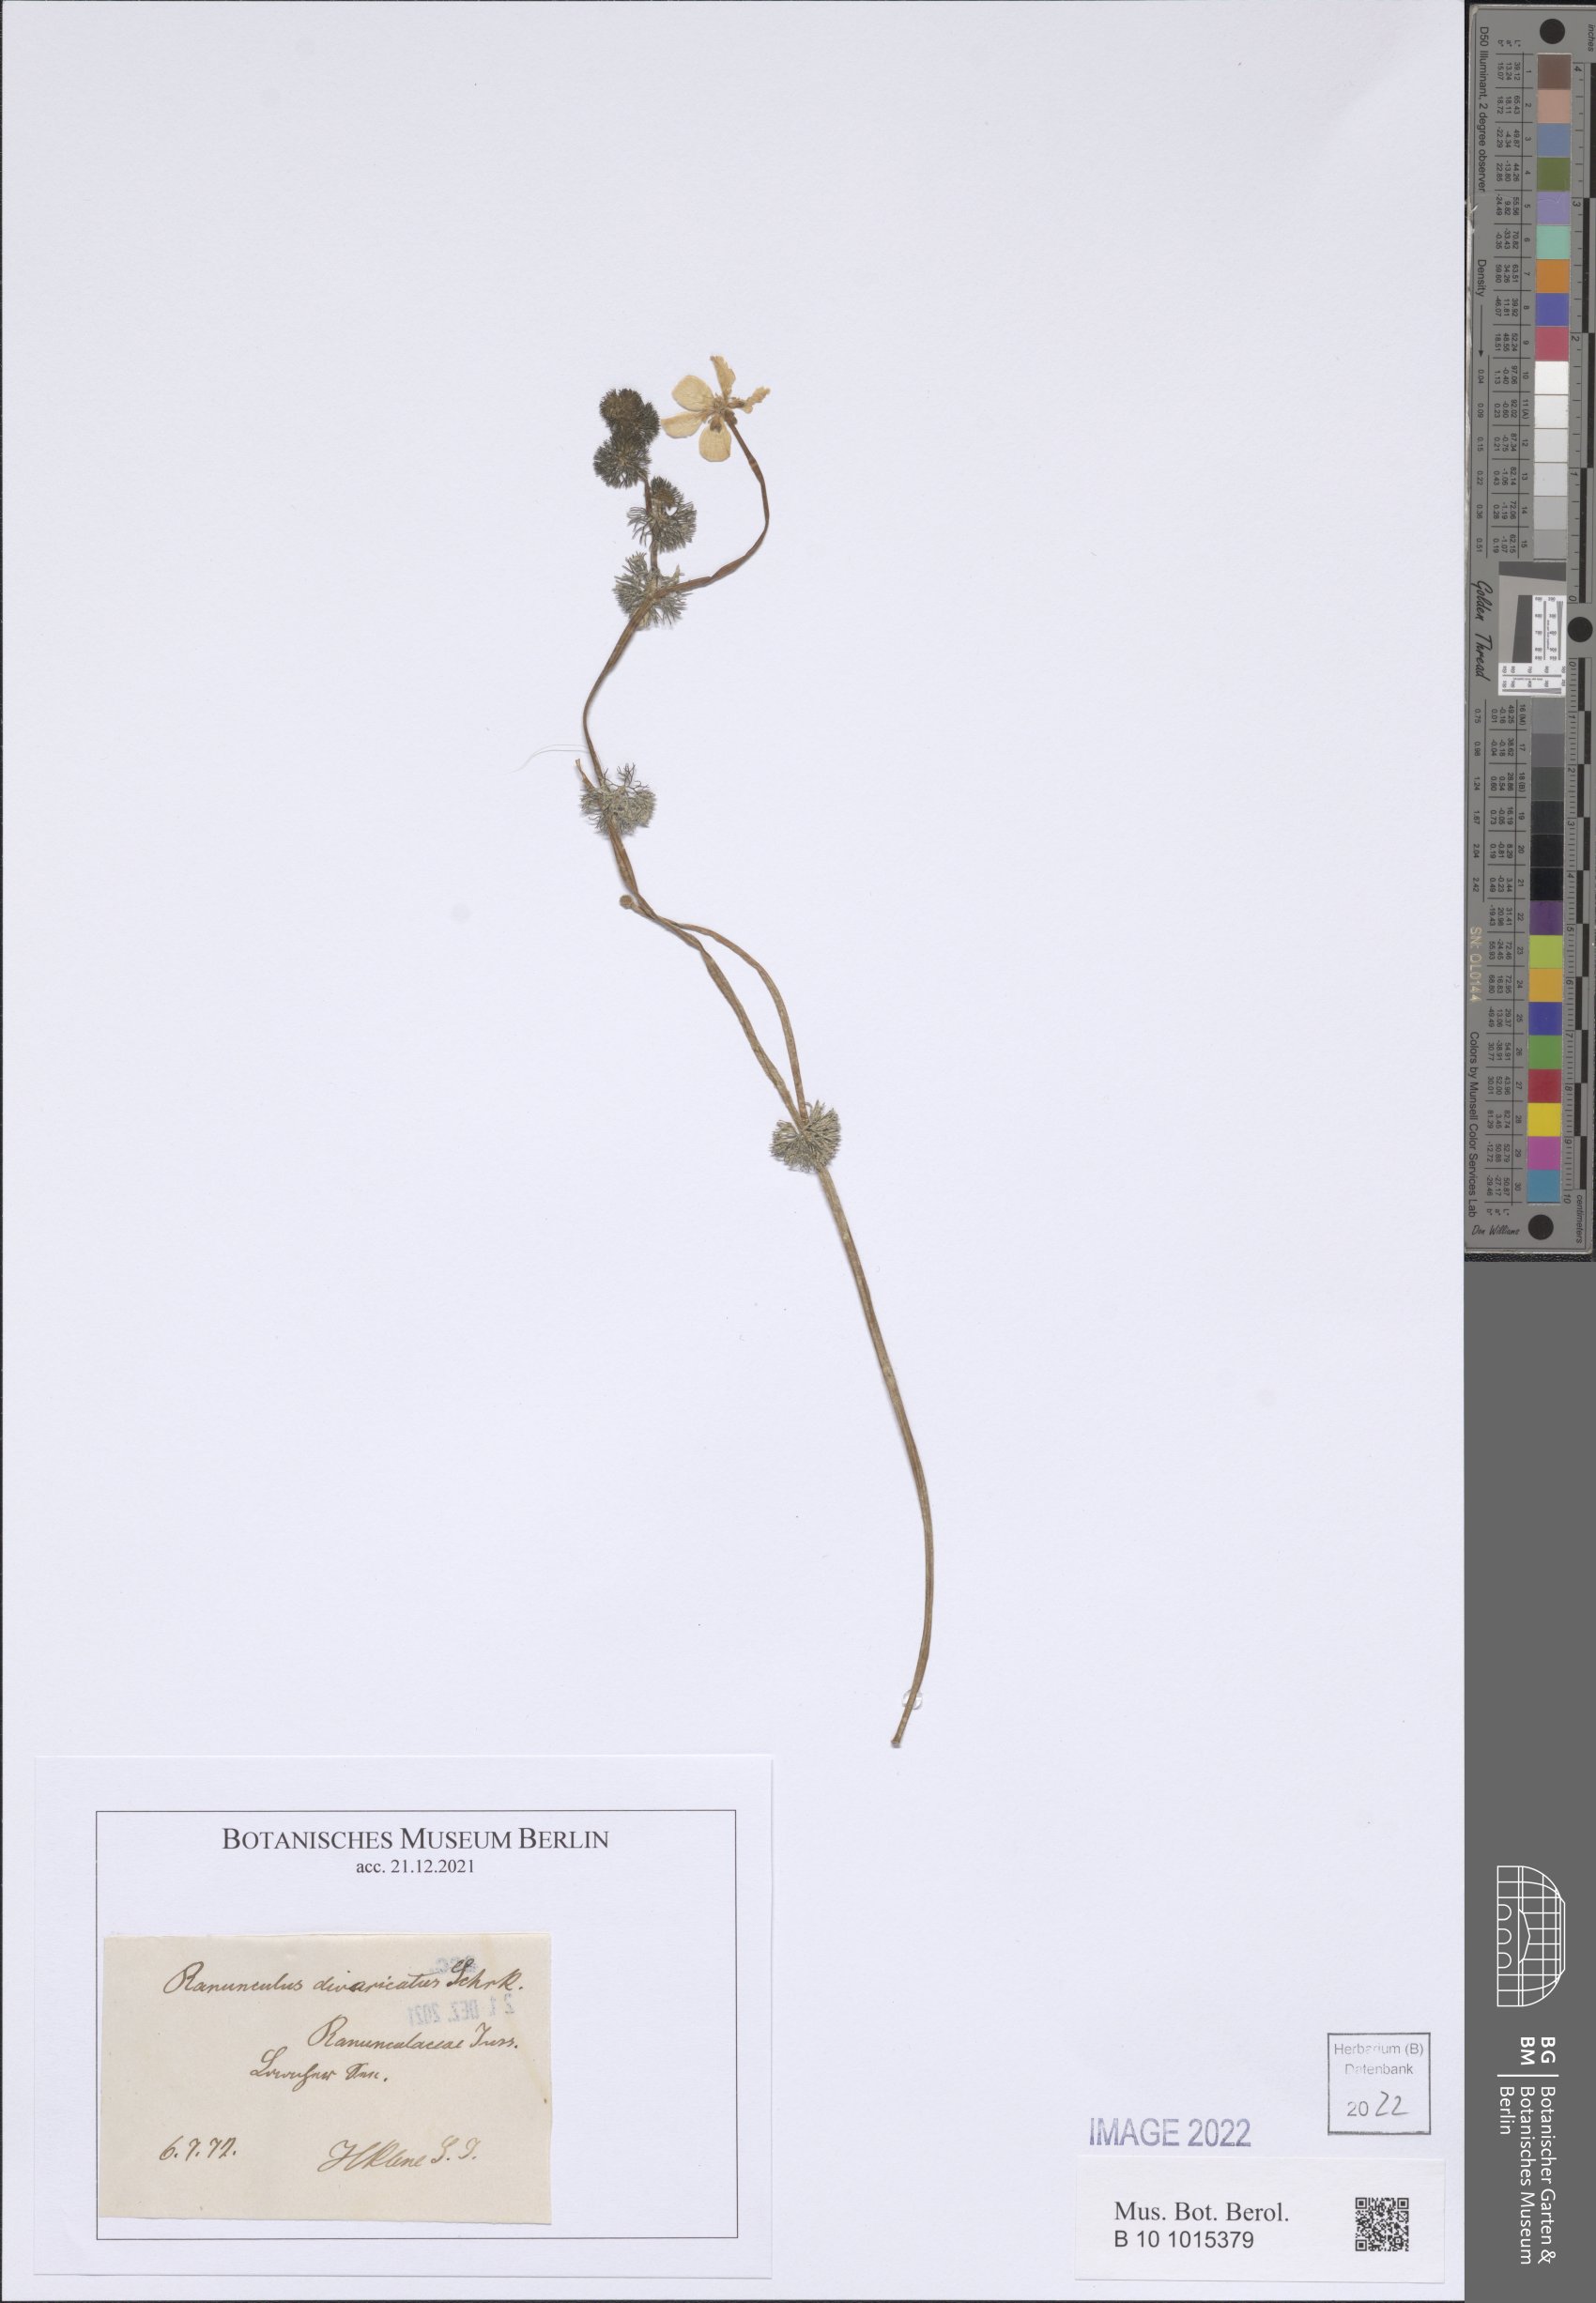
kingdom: Plantae
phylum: Tracheophyta
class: Magnoliopsida
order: Ranunculales
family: Ranunculaceae
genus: Ranunculus
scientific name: Ranunculus circinatus
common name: Fan-leaved water-crowfoot
